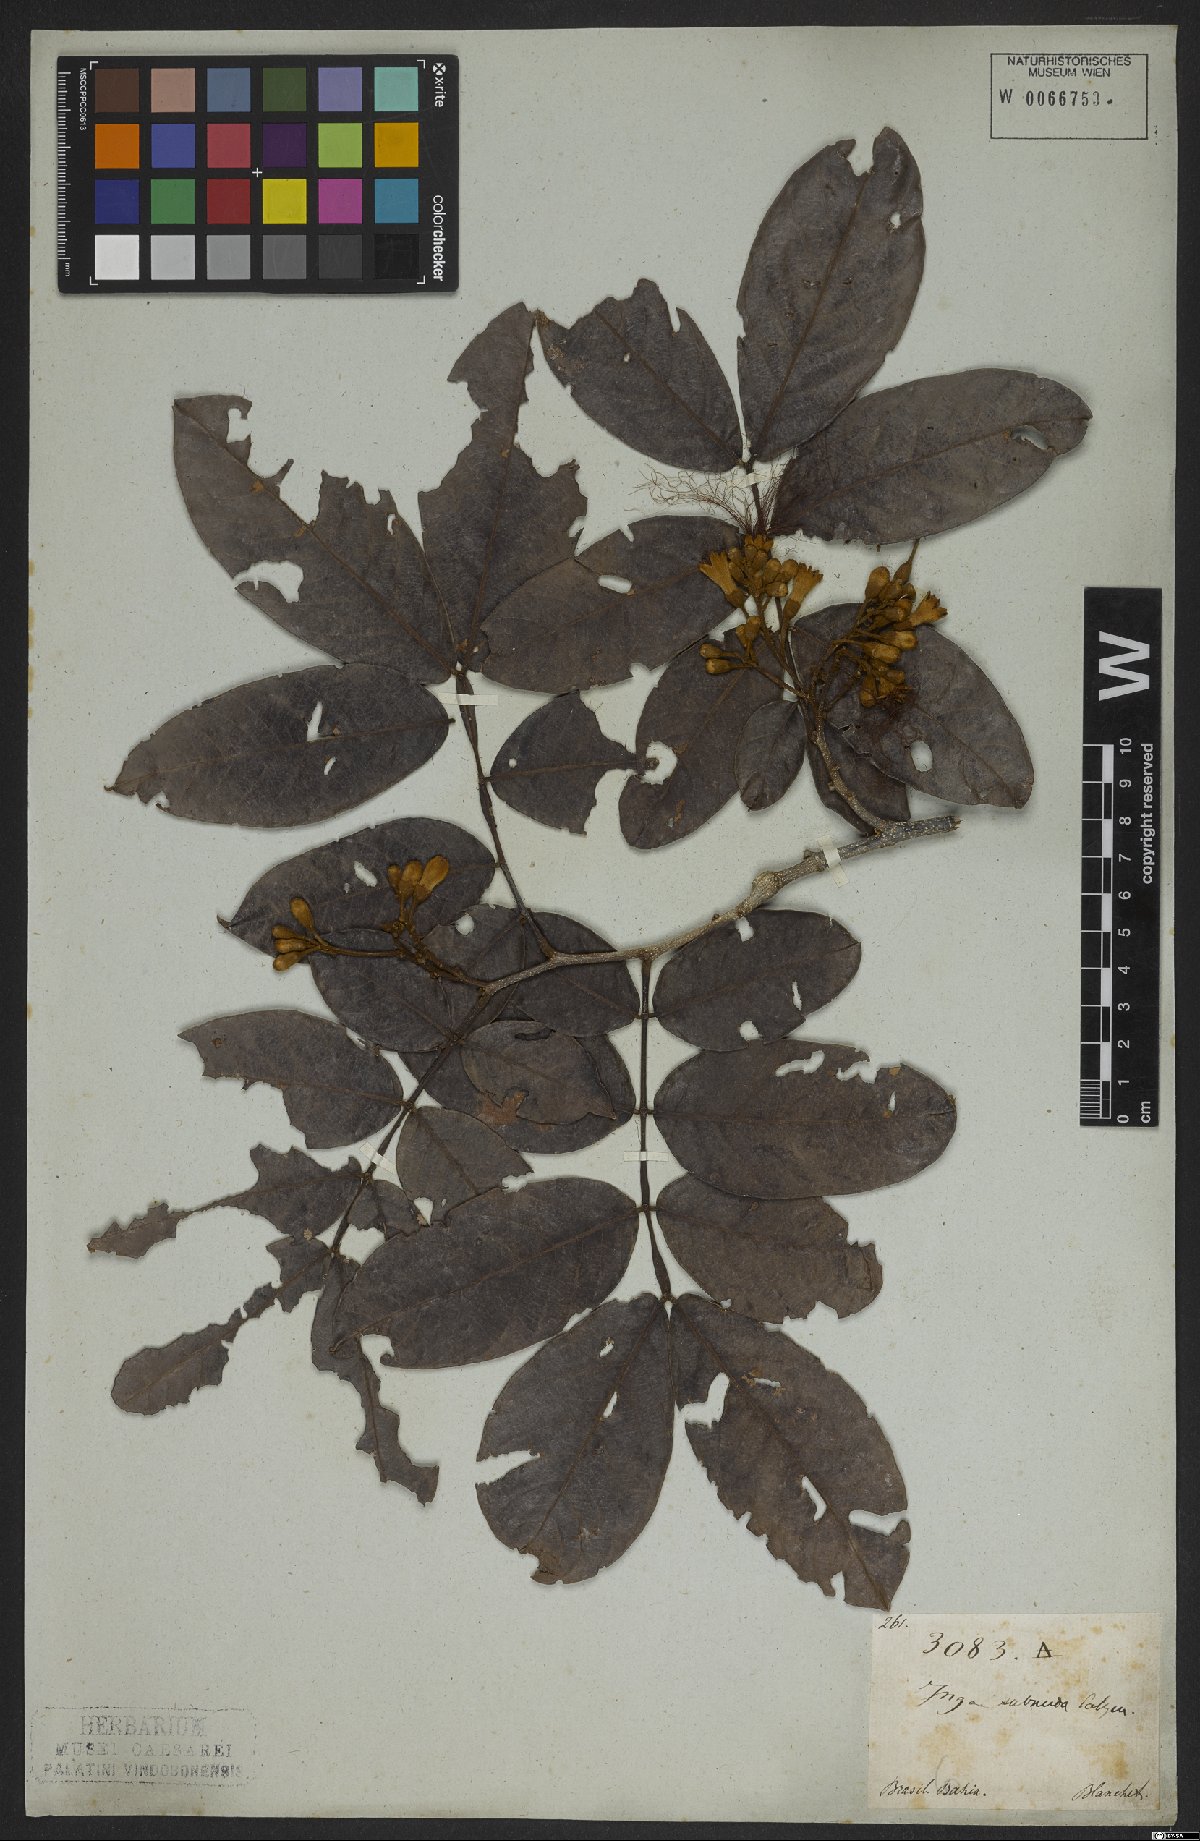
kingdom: Plantae
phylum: Tracheophyta
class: Magnoliopsida
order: Fabales
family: Fabaceae
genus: Inga
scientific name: Inga subnuda
